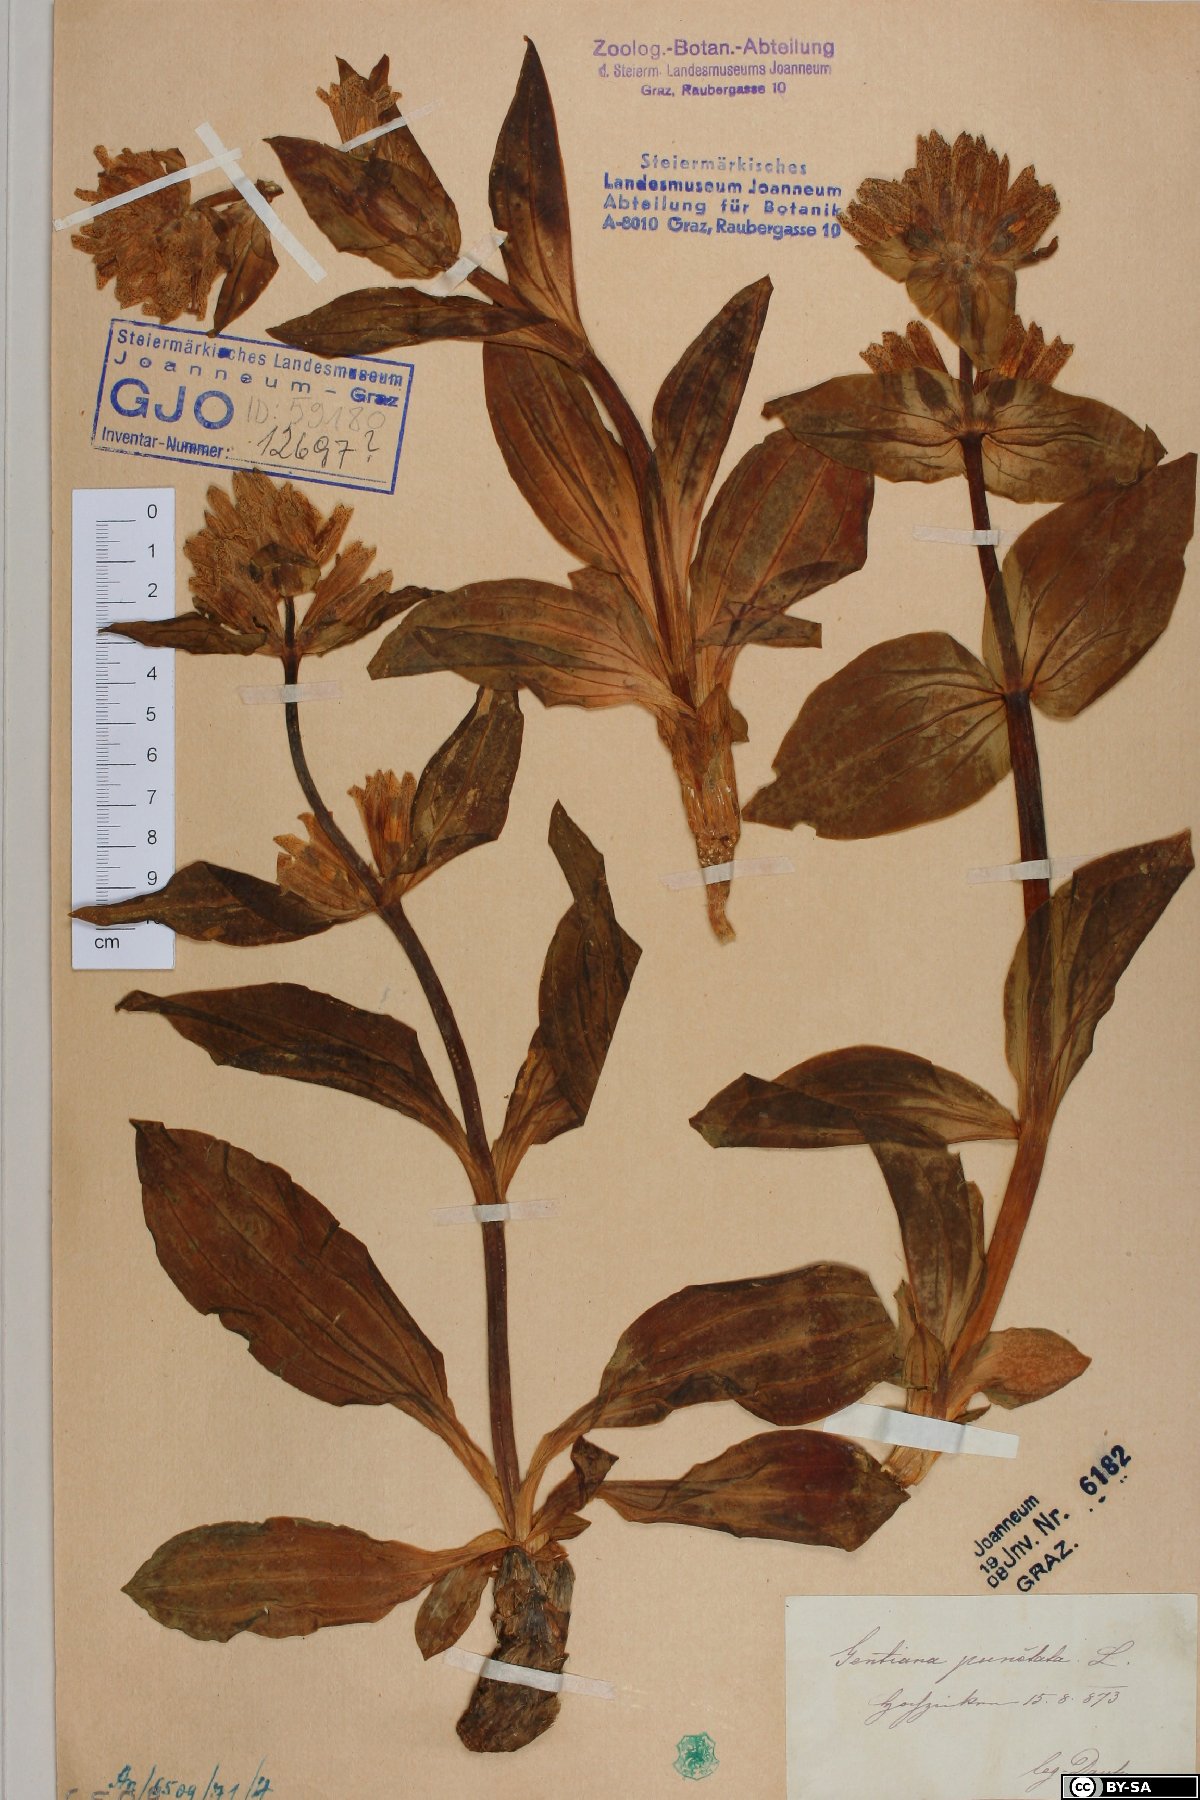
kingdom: Plantae
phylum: Tracheophyta
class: Magnoliopsida
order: Gentianales
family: Gentianaceae
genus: Gentiana
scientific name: Gentiana punctata
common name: Spotted gentian
